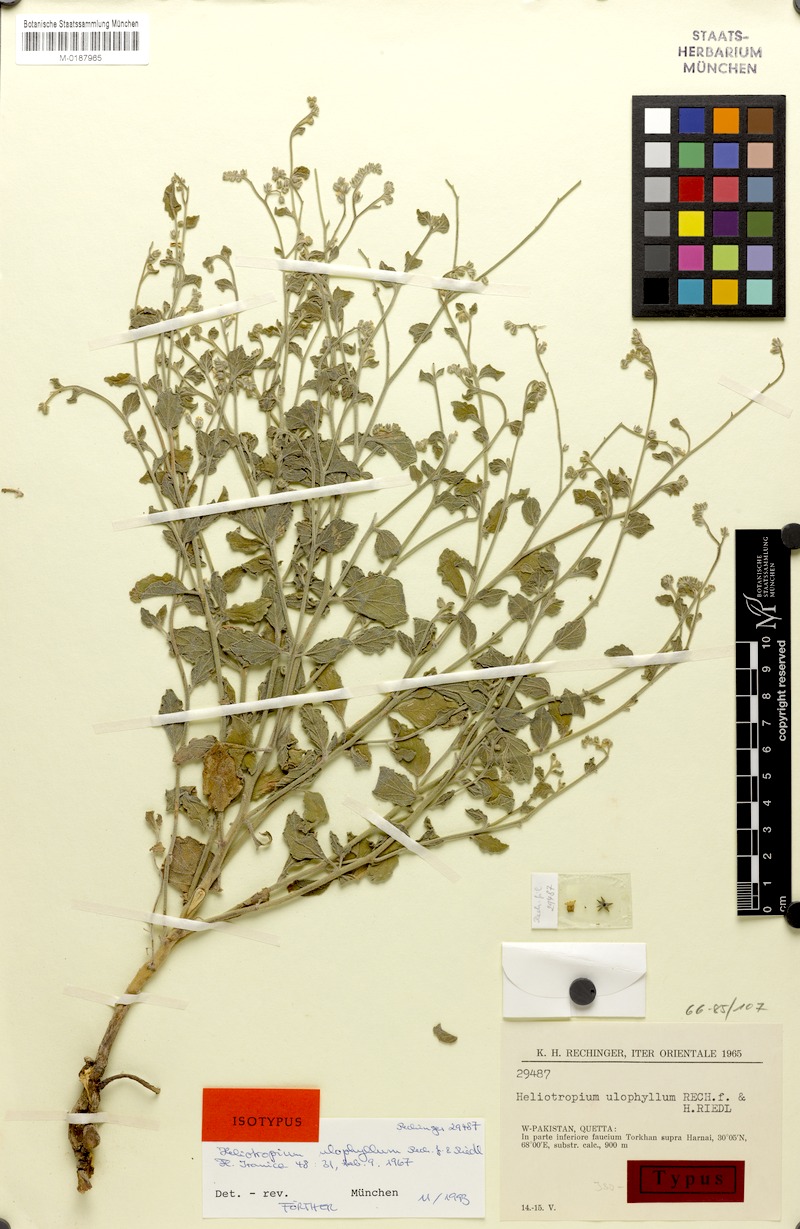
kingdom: Plantae
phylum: Tracheophyta
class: Magnoliopsida
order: Boraginales
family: Heliotropiaceae
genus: Heliotropium
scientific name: Heliotropium ulophyllum
